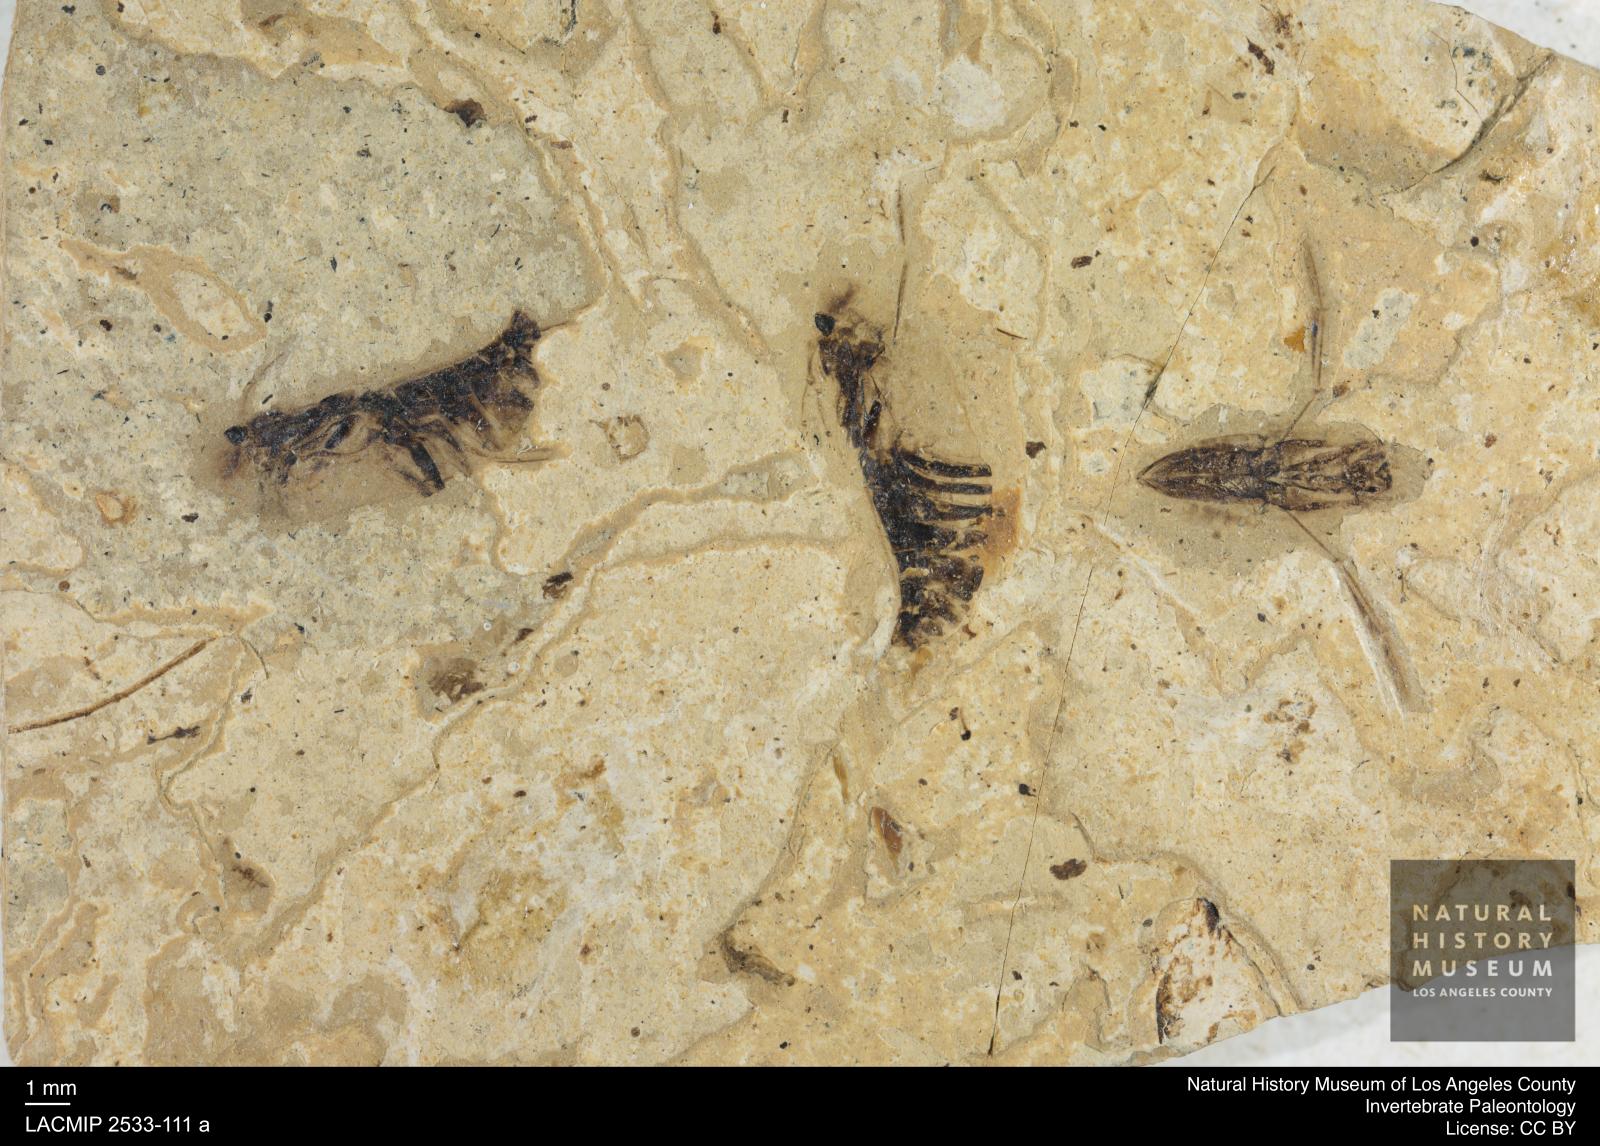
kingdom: Animalia
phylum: Arthropoda
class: Insecta
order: Hemiptera
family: Notonectidae
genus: Anisops
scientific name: Anisops Notonecta heydeni
